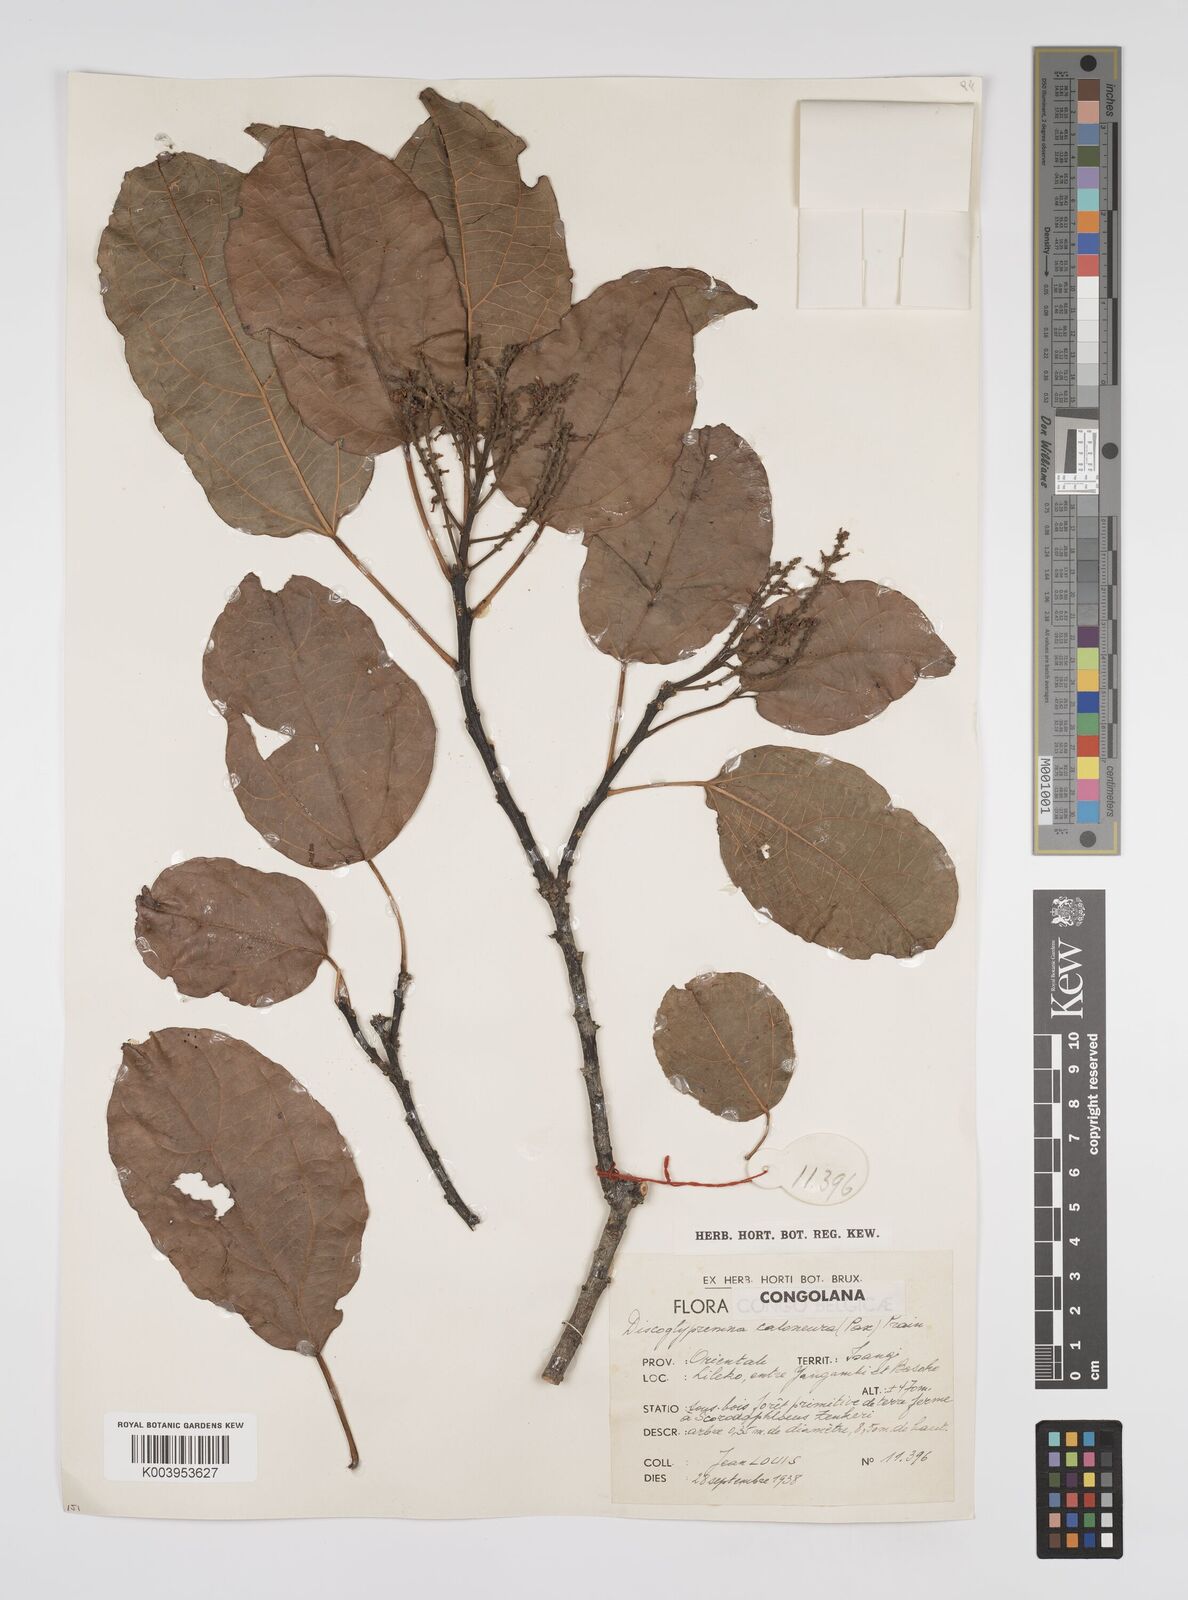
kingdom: Plantae
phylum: Tracheophyta
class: Magnoliopsida
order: Malpighiales
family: Euphorbiaceae
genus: Discoglypremna
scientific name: Discoglypremna caloneura
